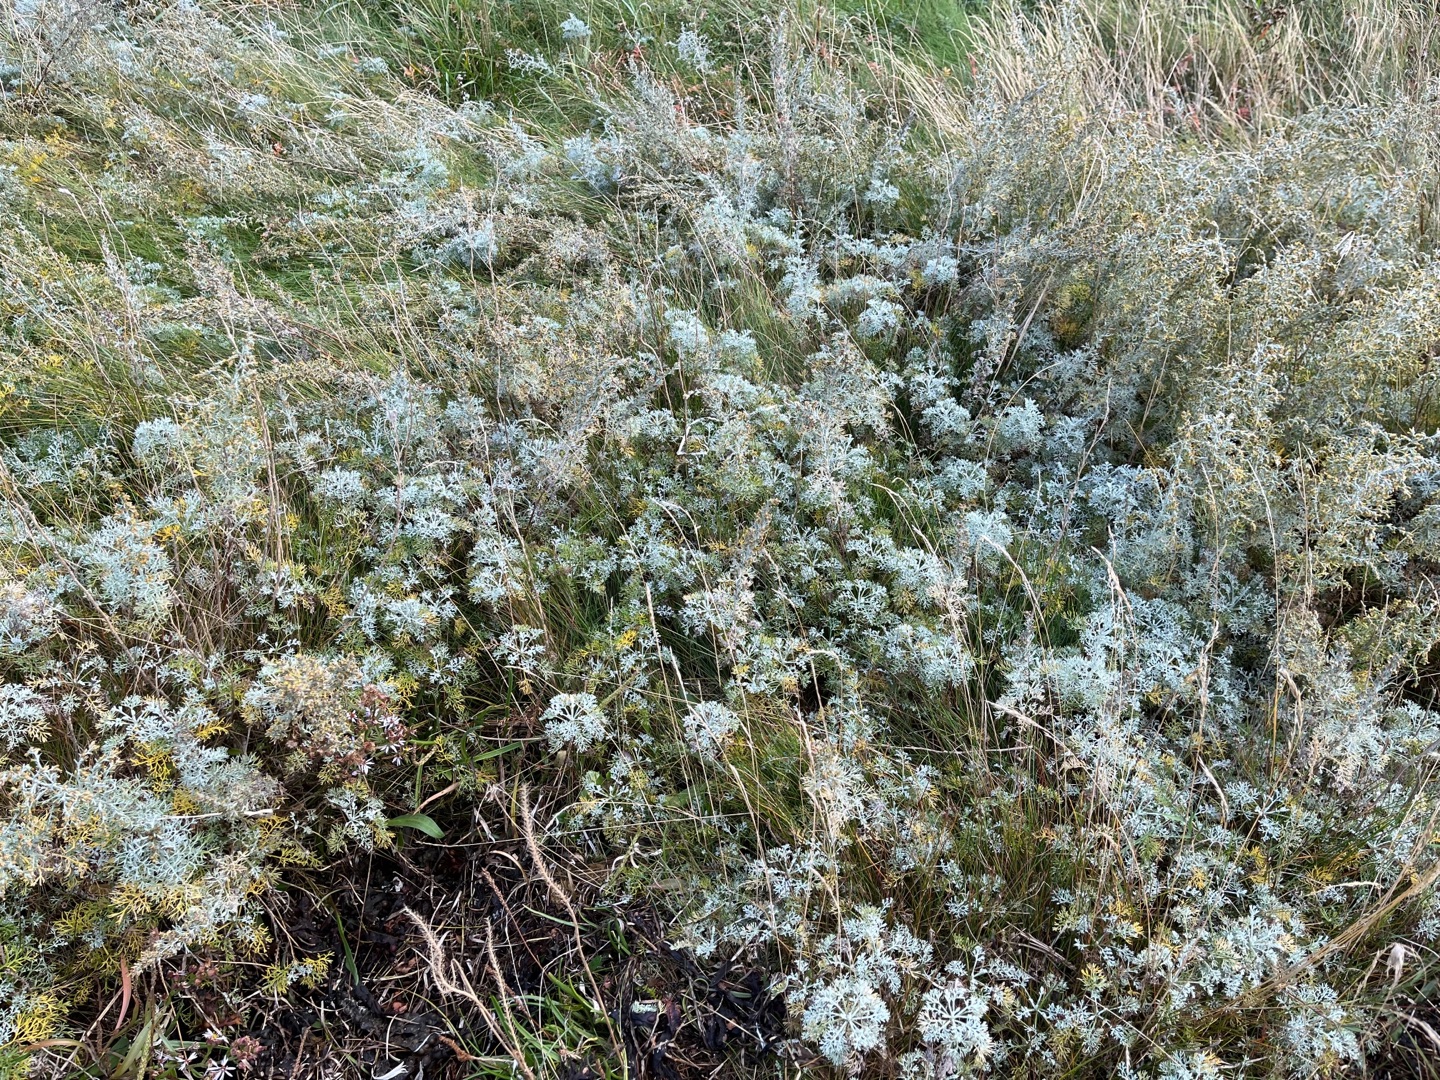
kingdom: Plantae
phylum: Tracheophyta
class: Magnoliopsida
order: Asterales
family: Asteraceae
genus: Artemisia
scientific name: Artemisia maritima
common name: Strandmalurt
